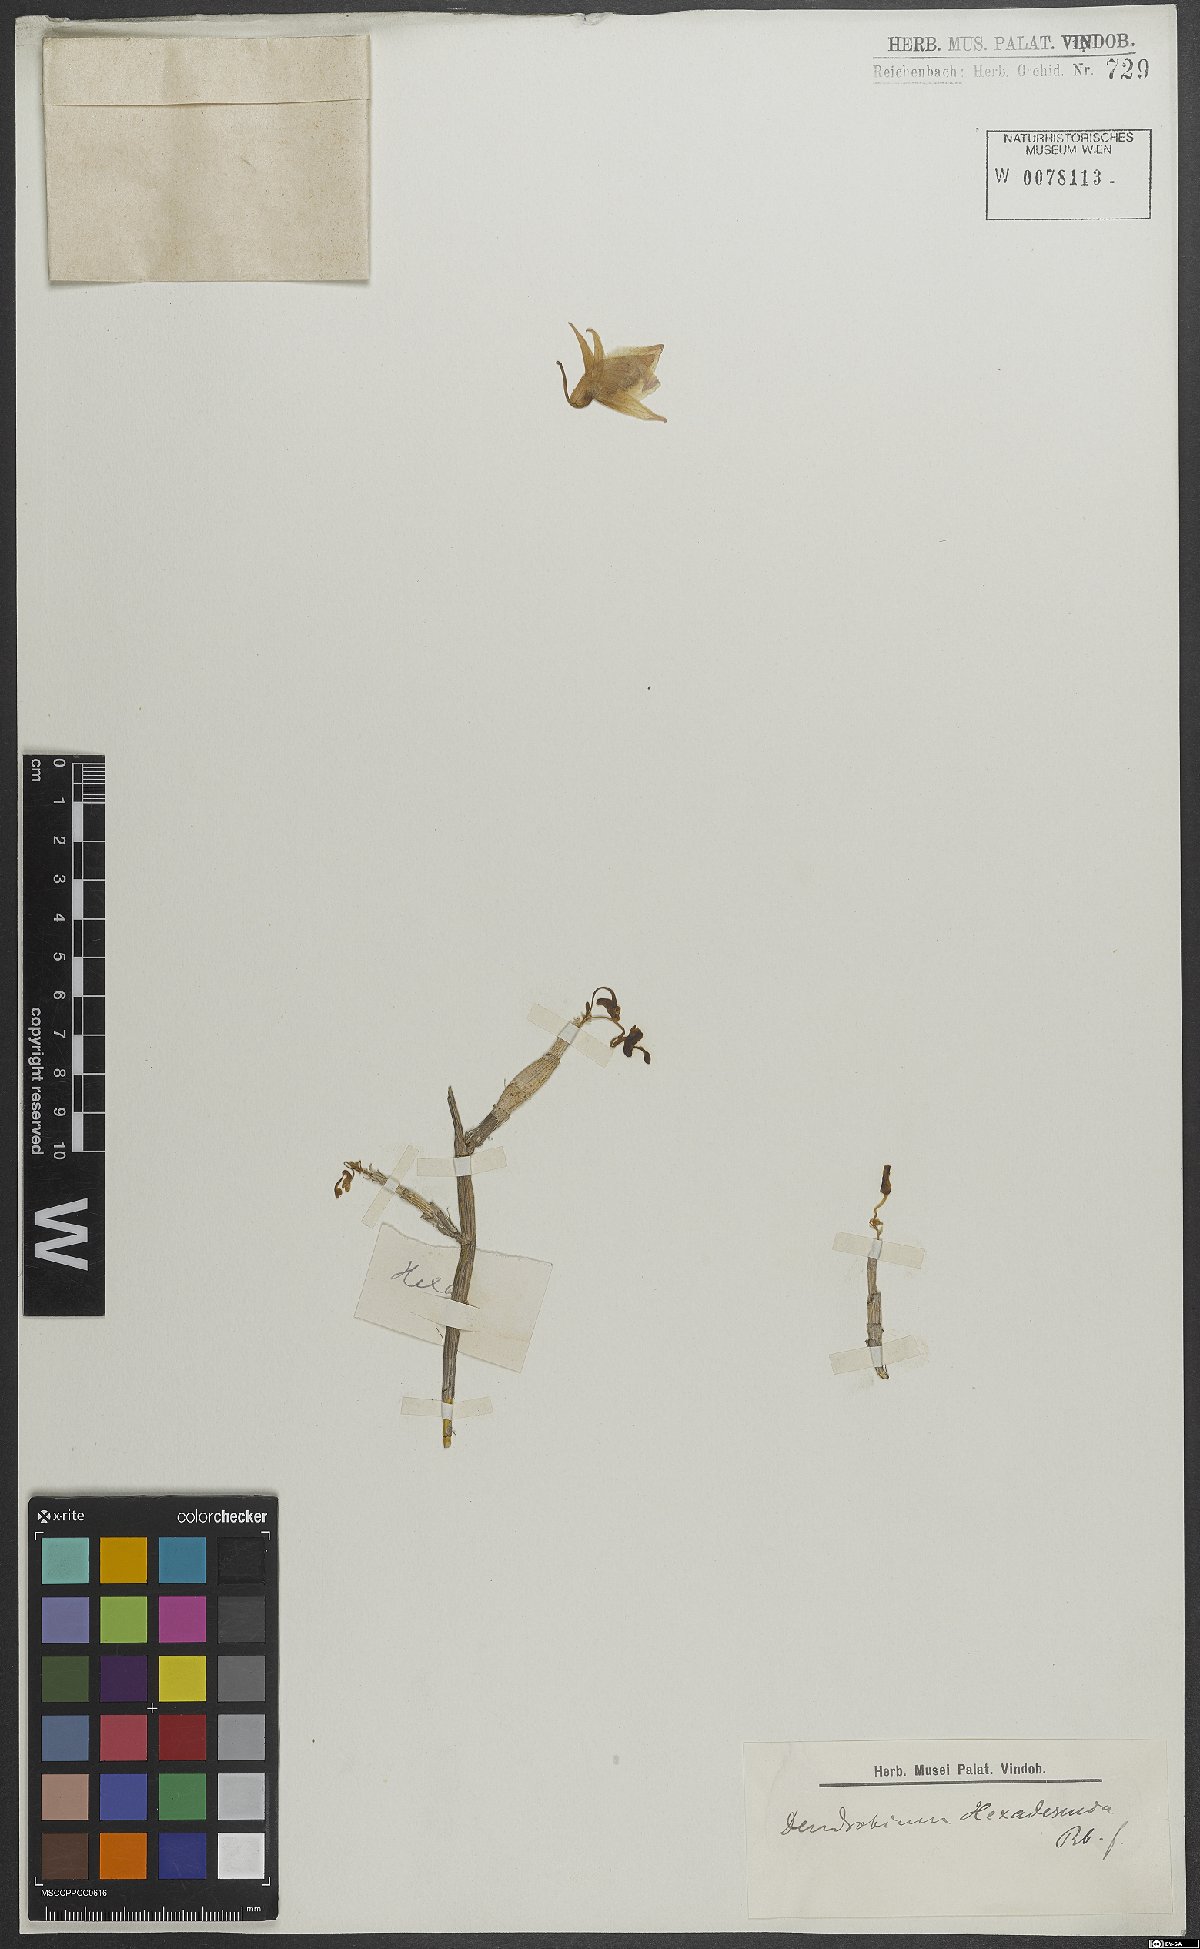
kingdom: Plantae
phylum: Tracheophyta
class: Liliopsida
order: Asparagales
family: Orchidaceae
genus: Dendrobium
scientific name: Dendrobium parcum
